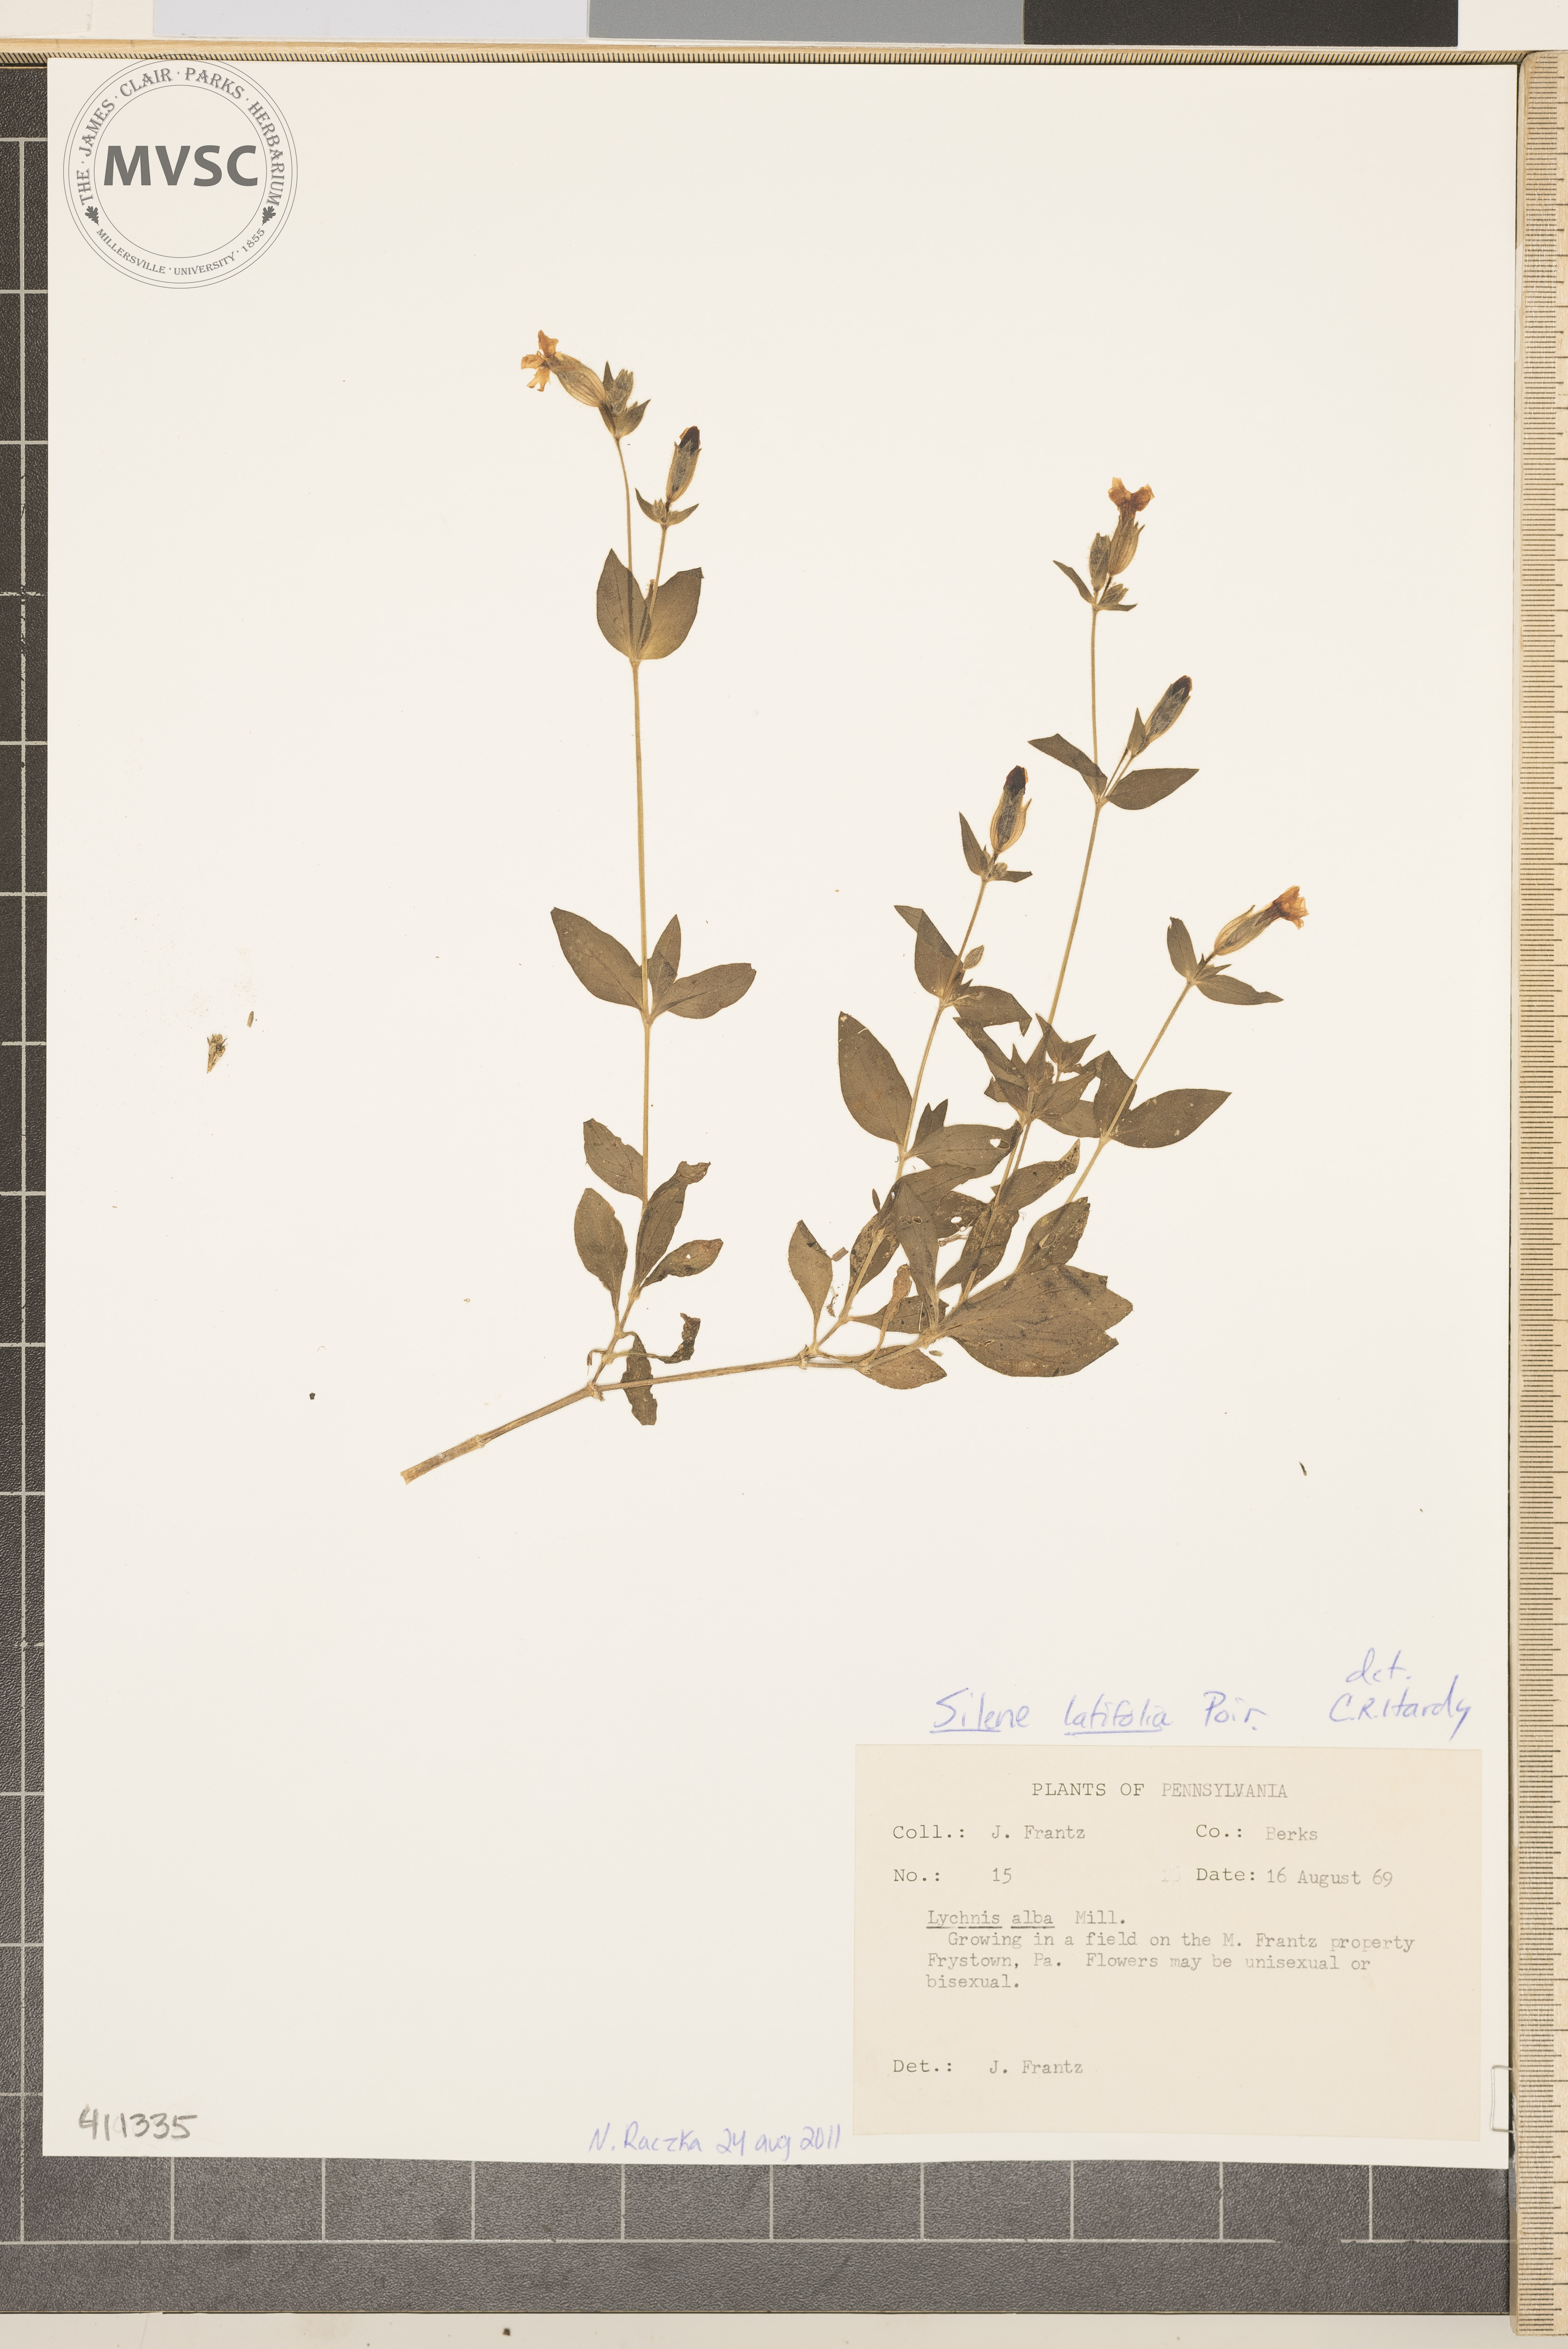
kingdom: Plantae
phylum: Tracheophyta
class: Magnoliopsida
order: Caryophyllales
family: Caryophyllaceae
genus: Silene
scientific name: Silene latifolia
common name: White campion
